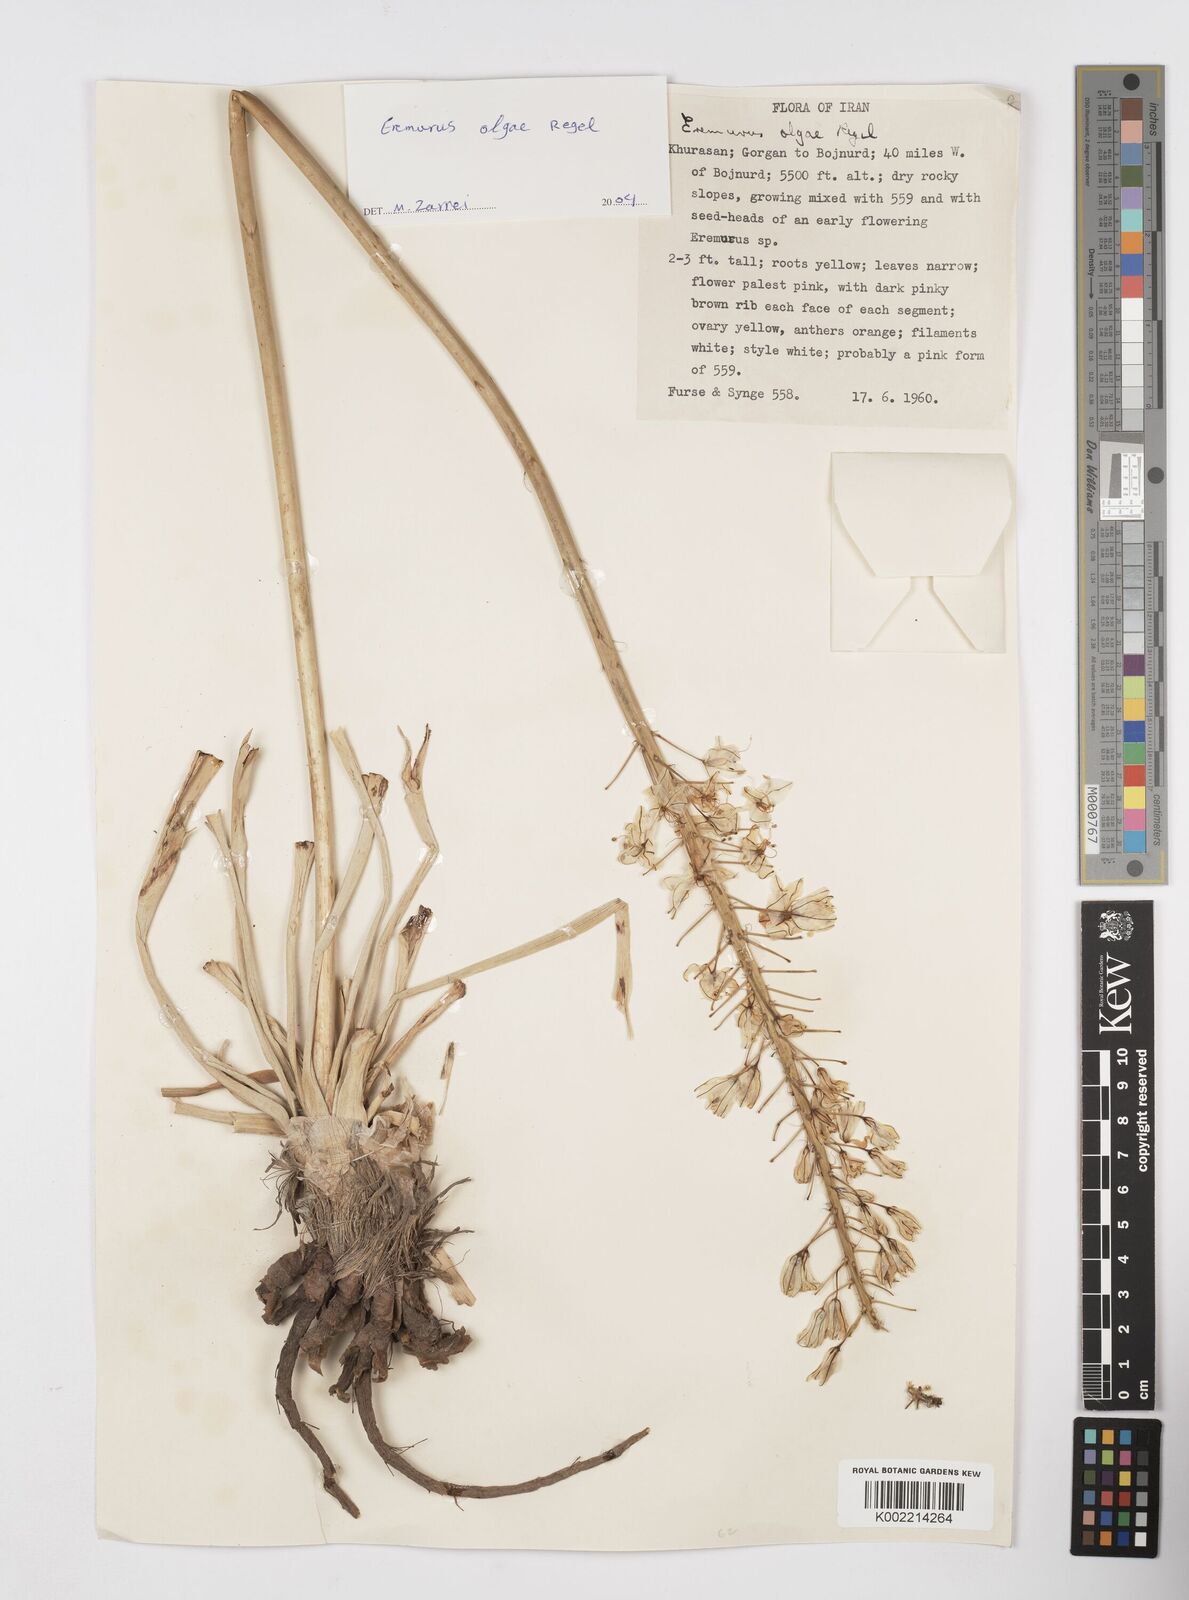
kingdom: Plantae
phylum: Tracheophyta
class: Liliopsida
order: Asparagales
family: Asphodelaceae
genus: Eremurus
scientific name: Eremurus olgae
